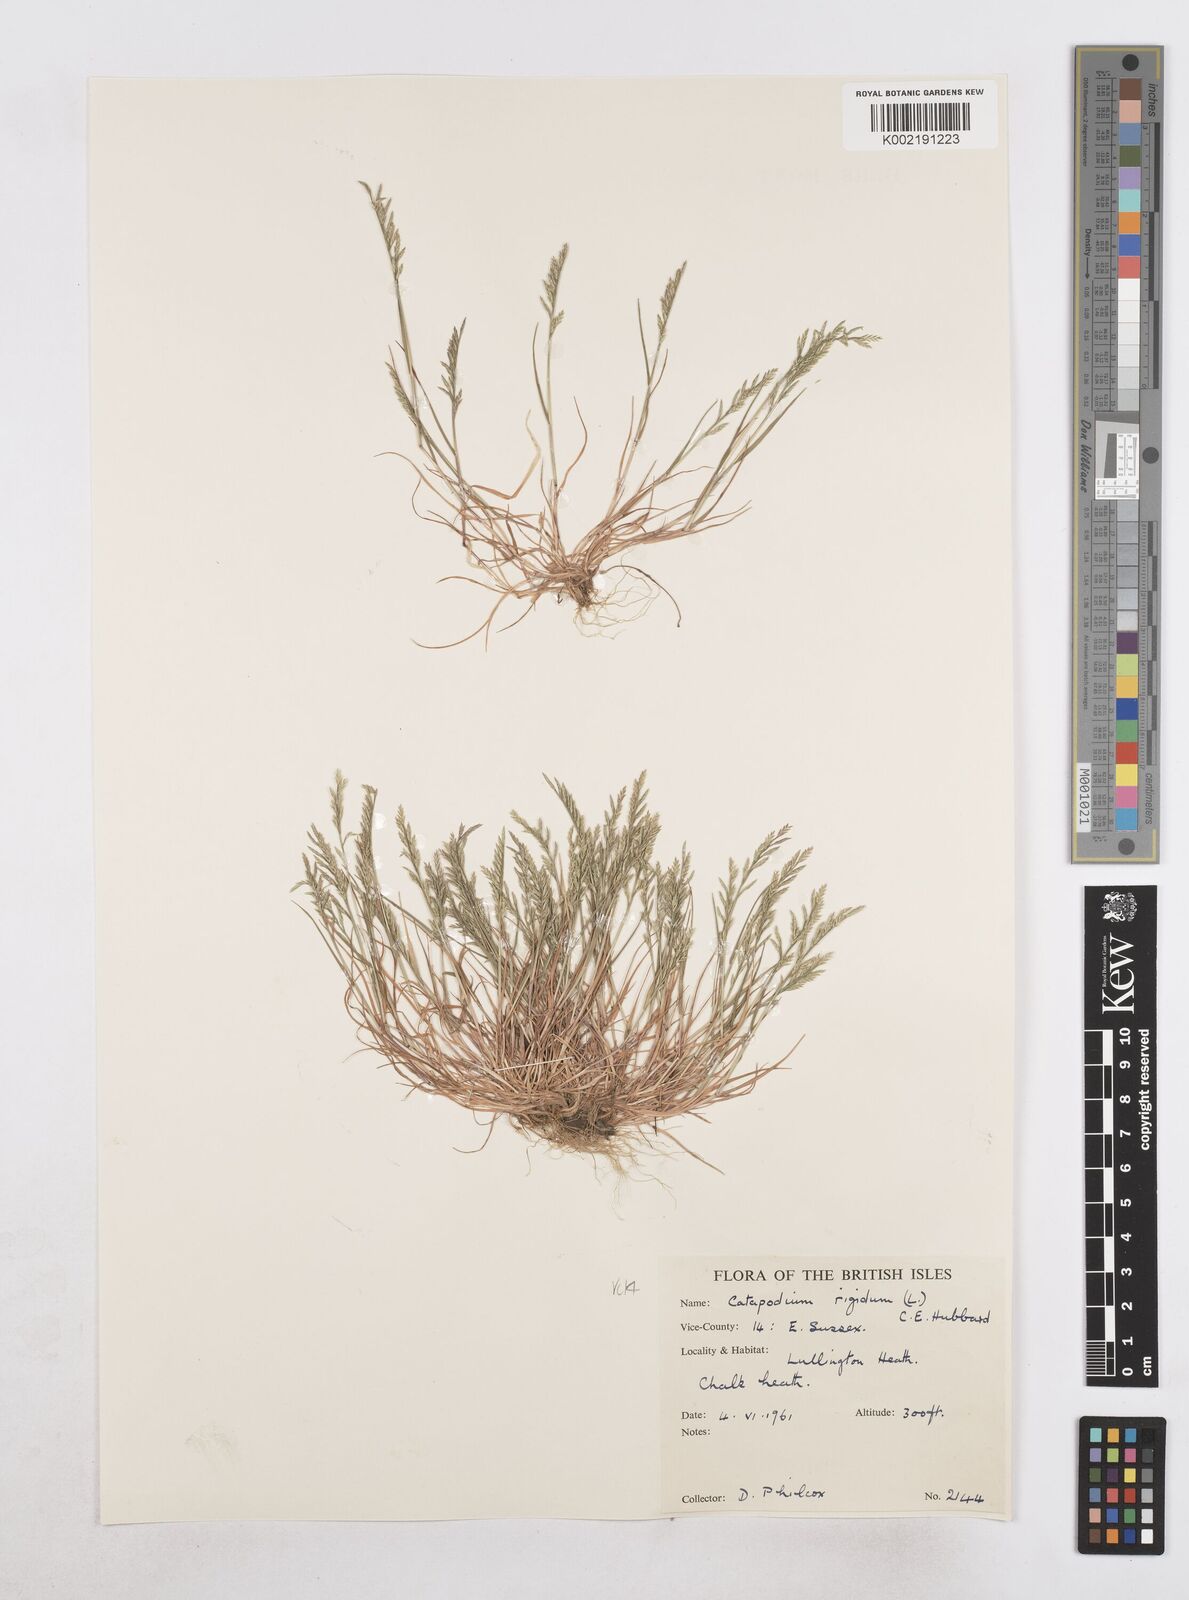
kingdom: Plantae
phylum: Tracheophyta
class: Liliopsida
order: Poales
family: Poaceae
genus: Catapodium
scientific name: Catapodium rigidum
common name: Fern-grass
